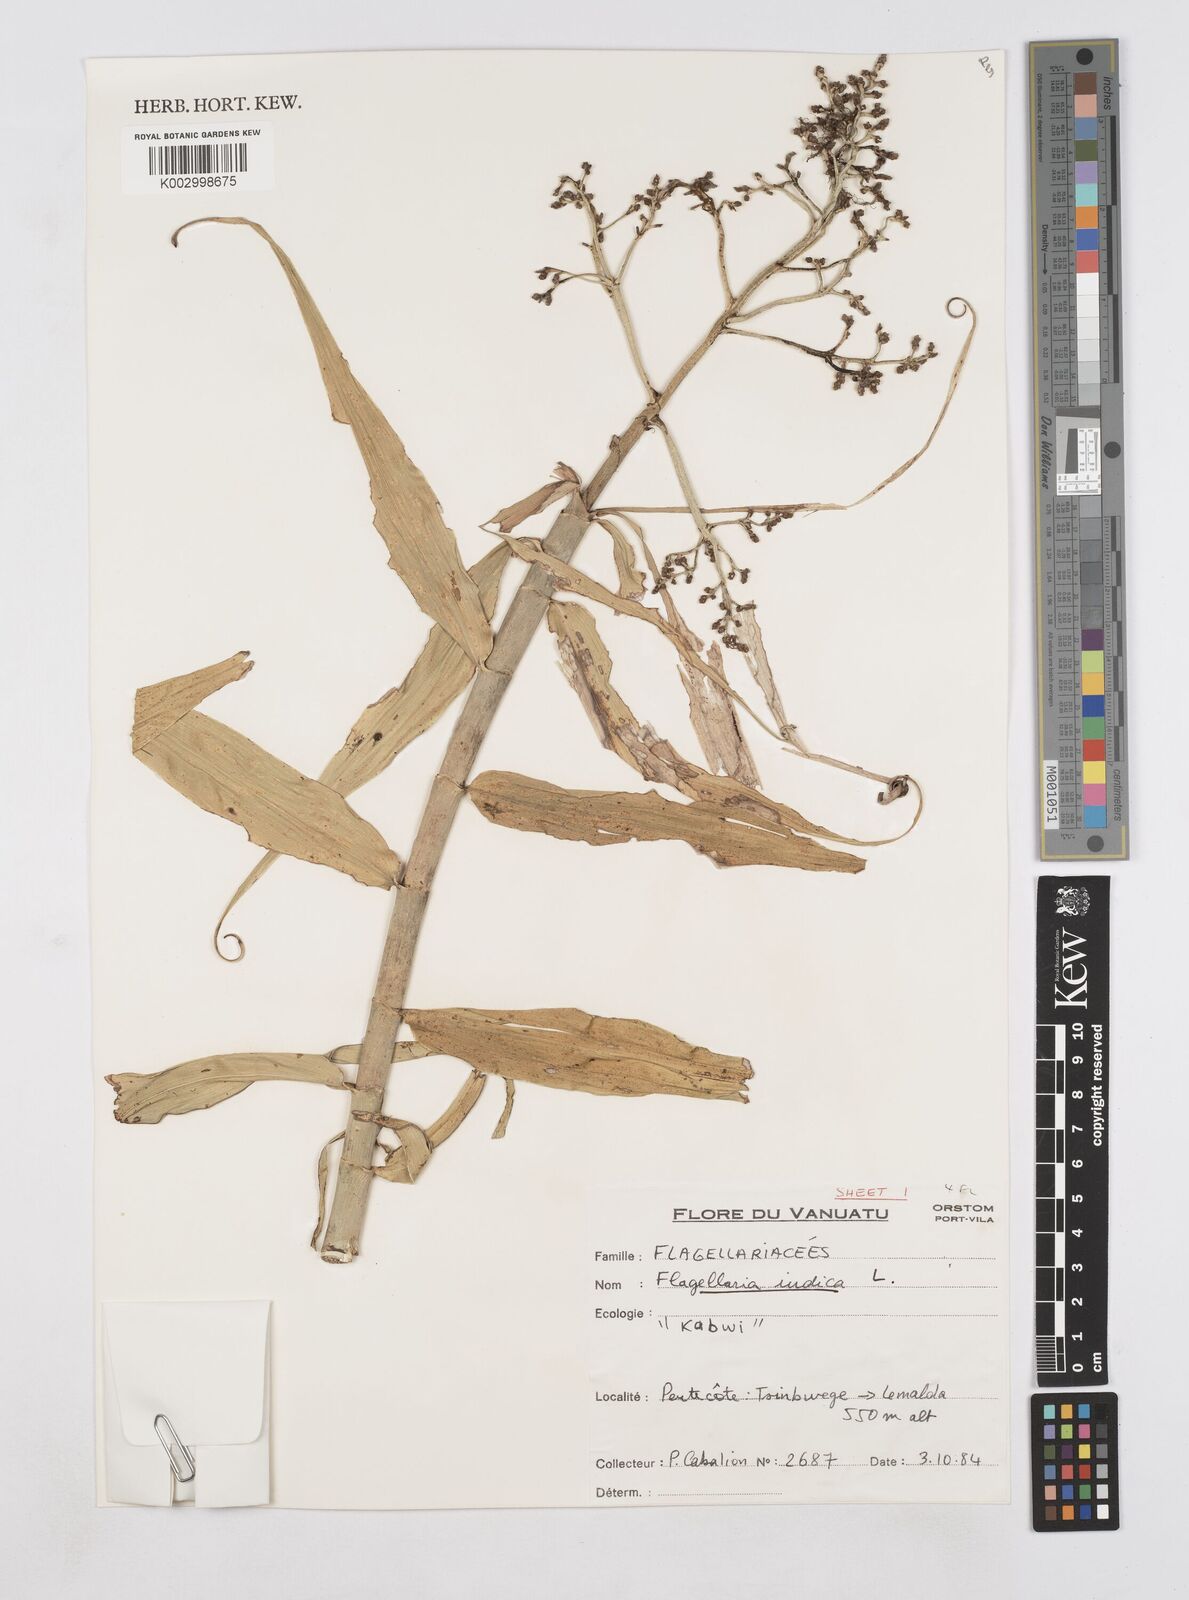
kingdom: Plantae
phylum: Tracheophyta
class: Liliopsida
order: Poales
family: Flagellariaceae
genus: Flagellaria
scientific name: Flagellaria indica
